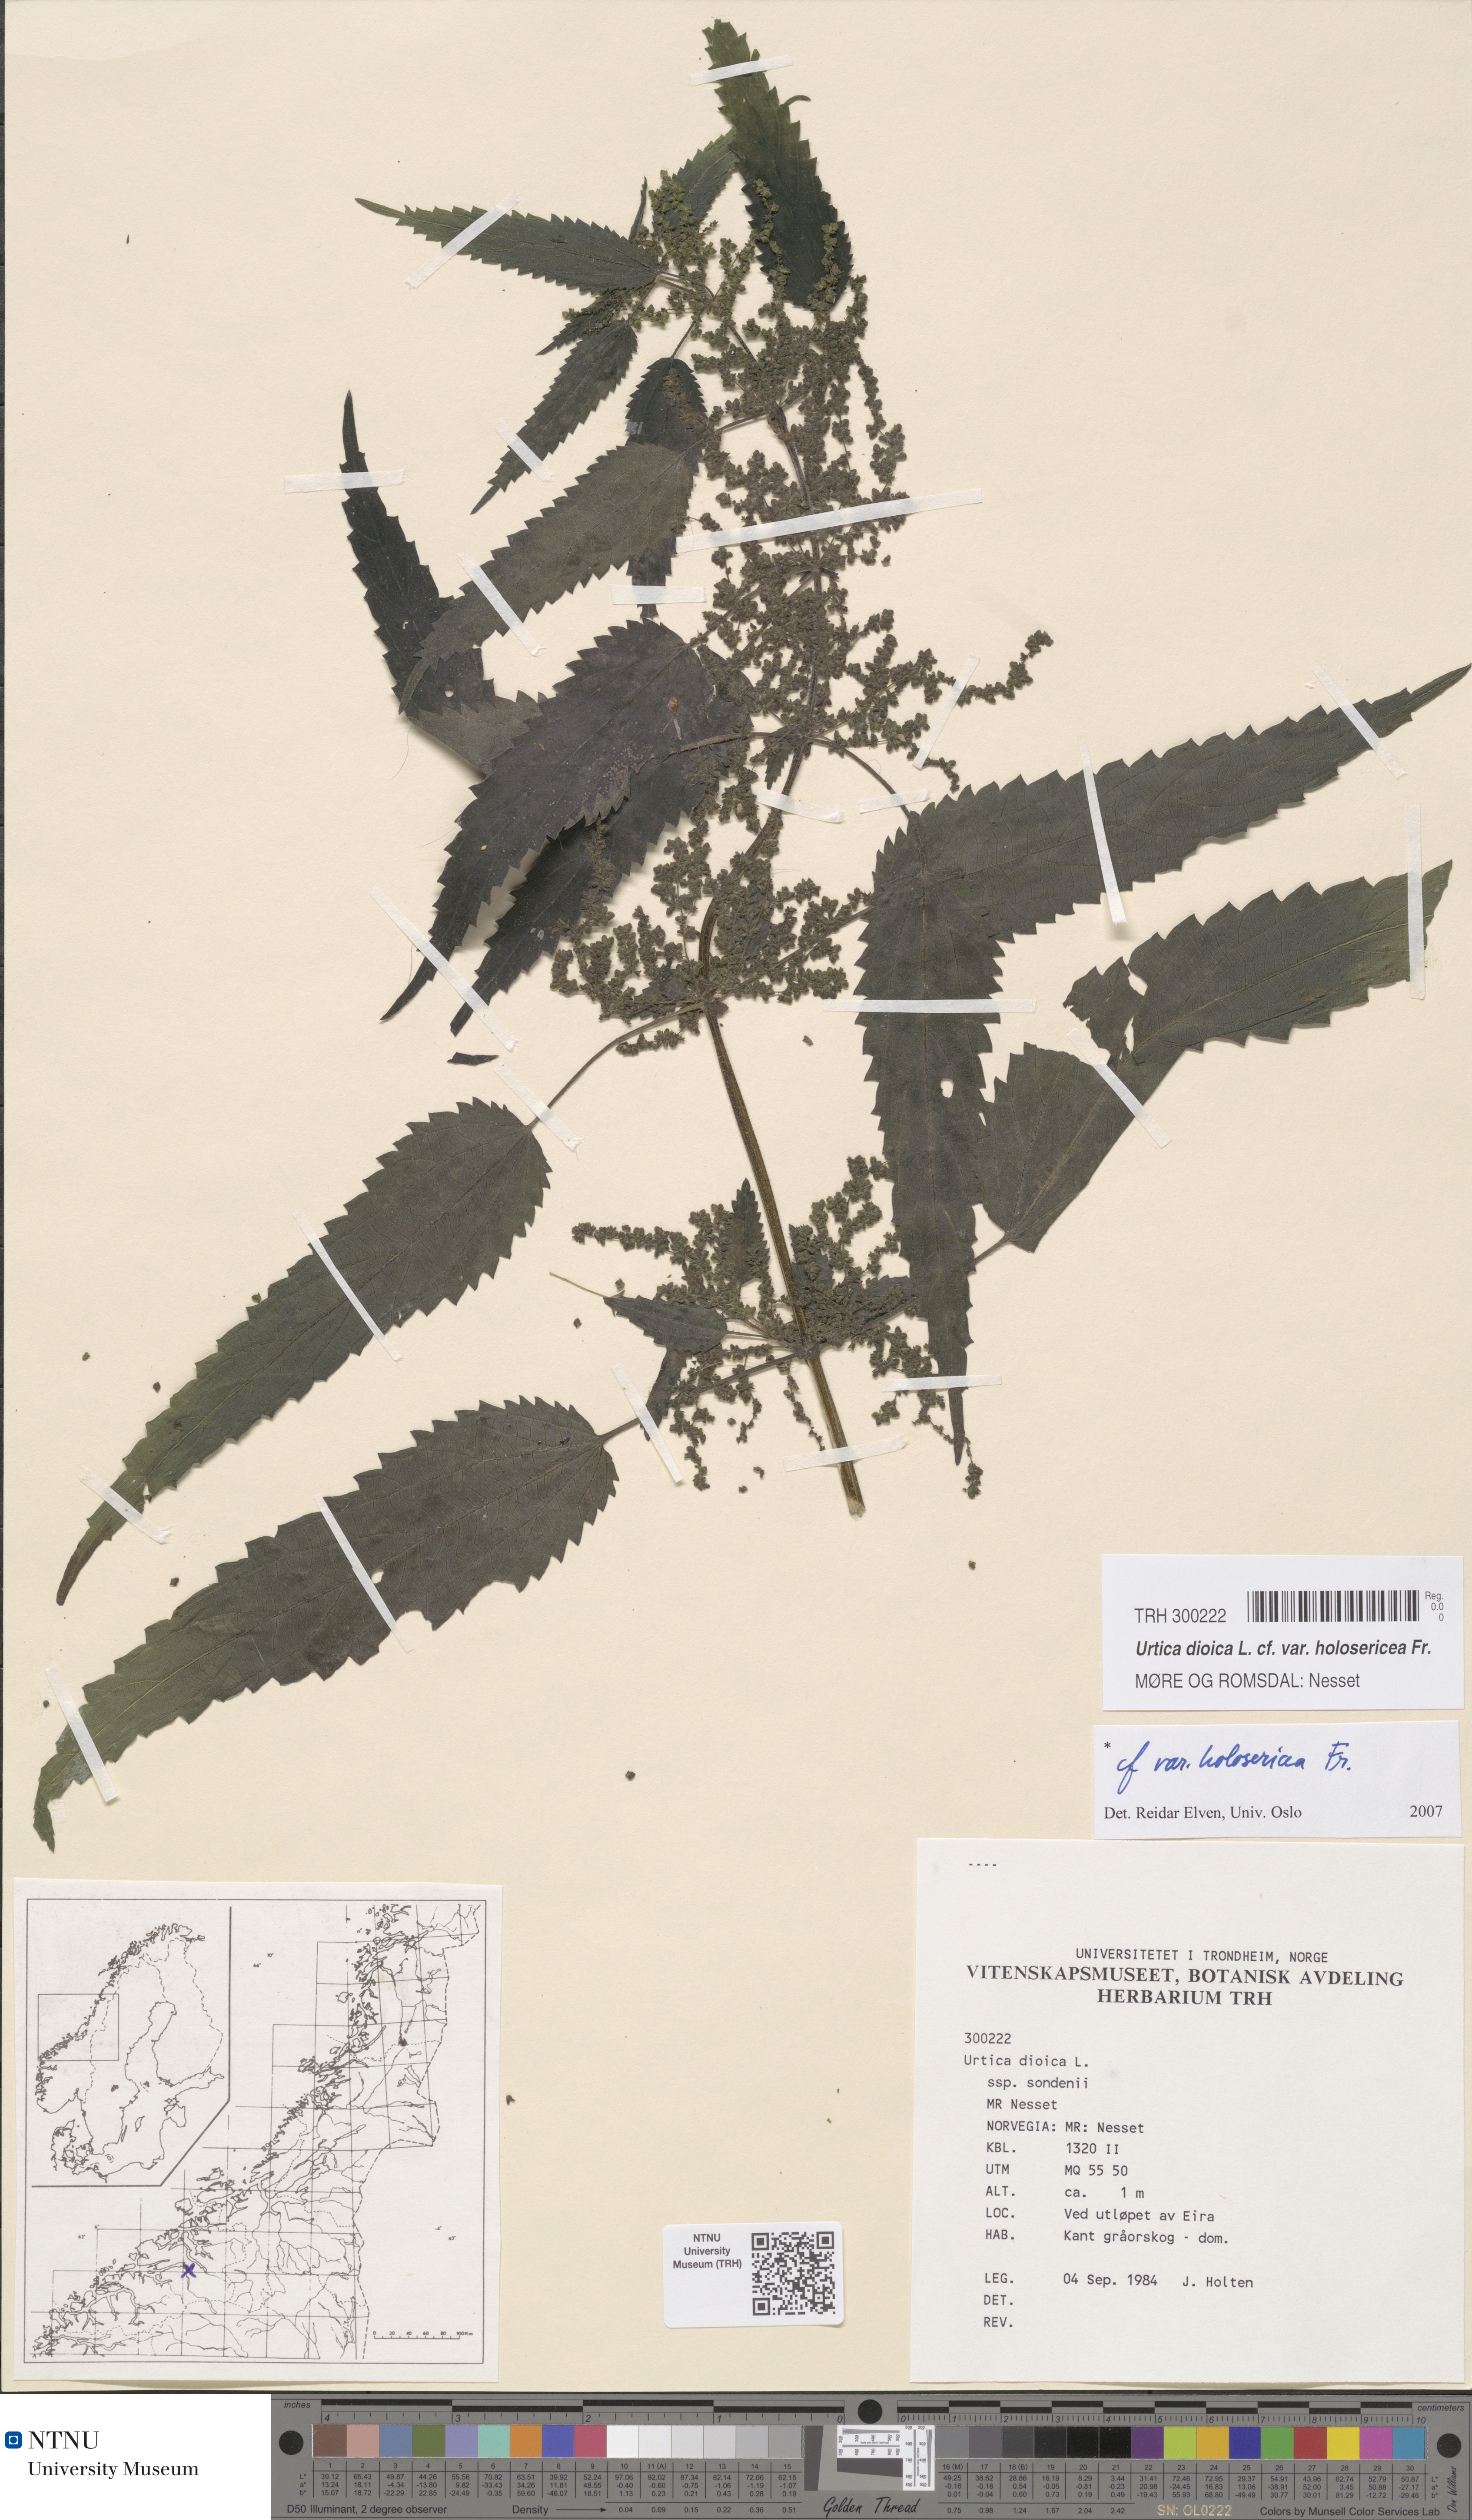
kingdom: Plantae
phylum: Tracheophyta
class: Magnoliopsida
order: Rosales
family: Urticaceae
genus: Urtica
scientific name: Urtica dioica
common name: Common nettle
